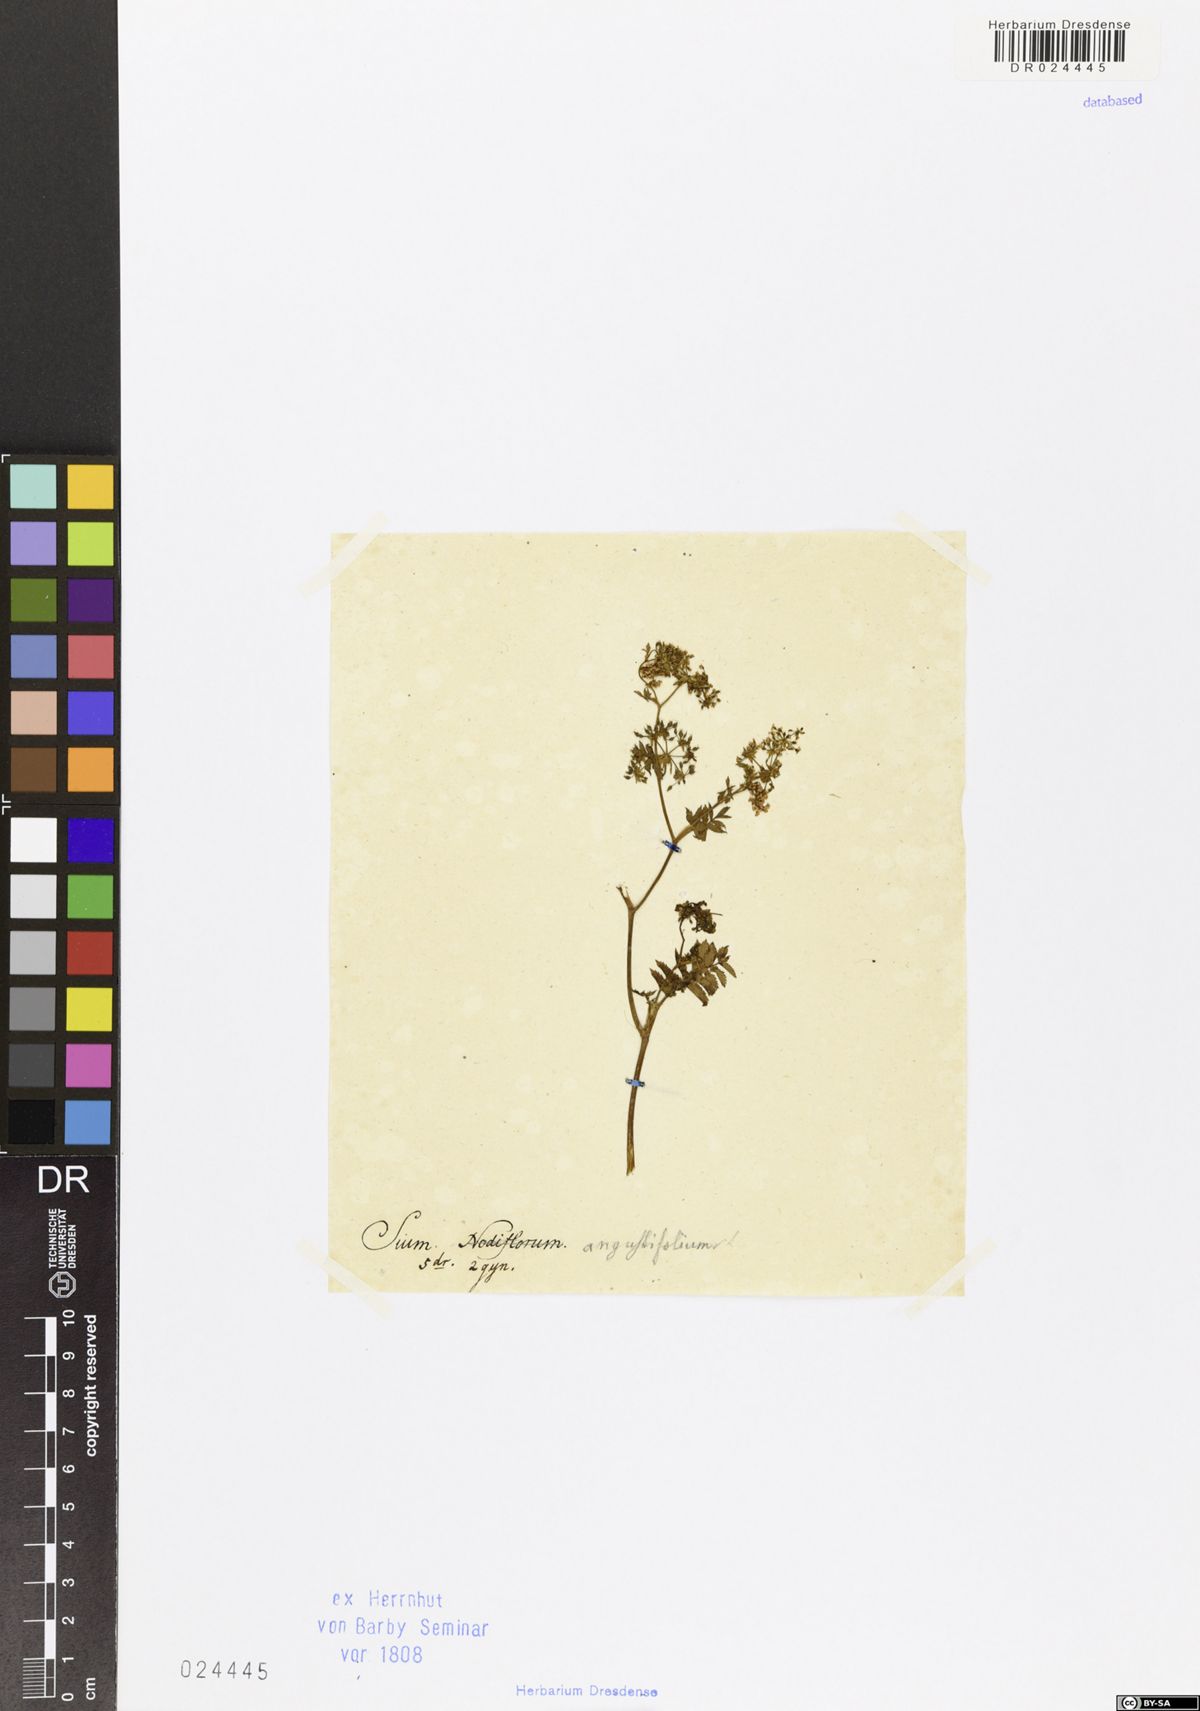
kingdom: Plantae
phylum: Tracheophyta
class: Magnoliopsida
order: Apiales
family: Apiaceae
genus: Berula
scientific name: Berula erecta
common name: Lesser water-parsnip
